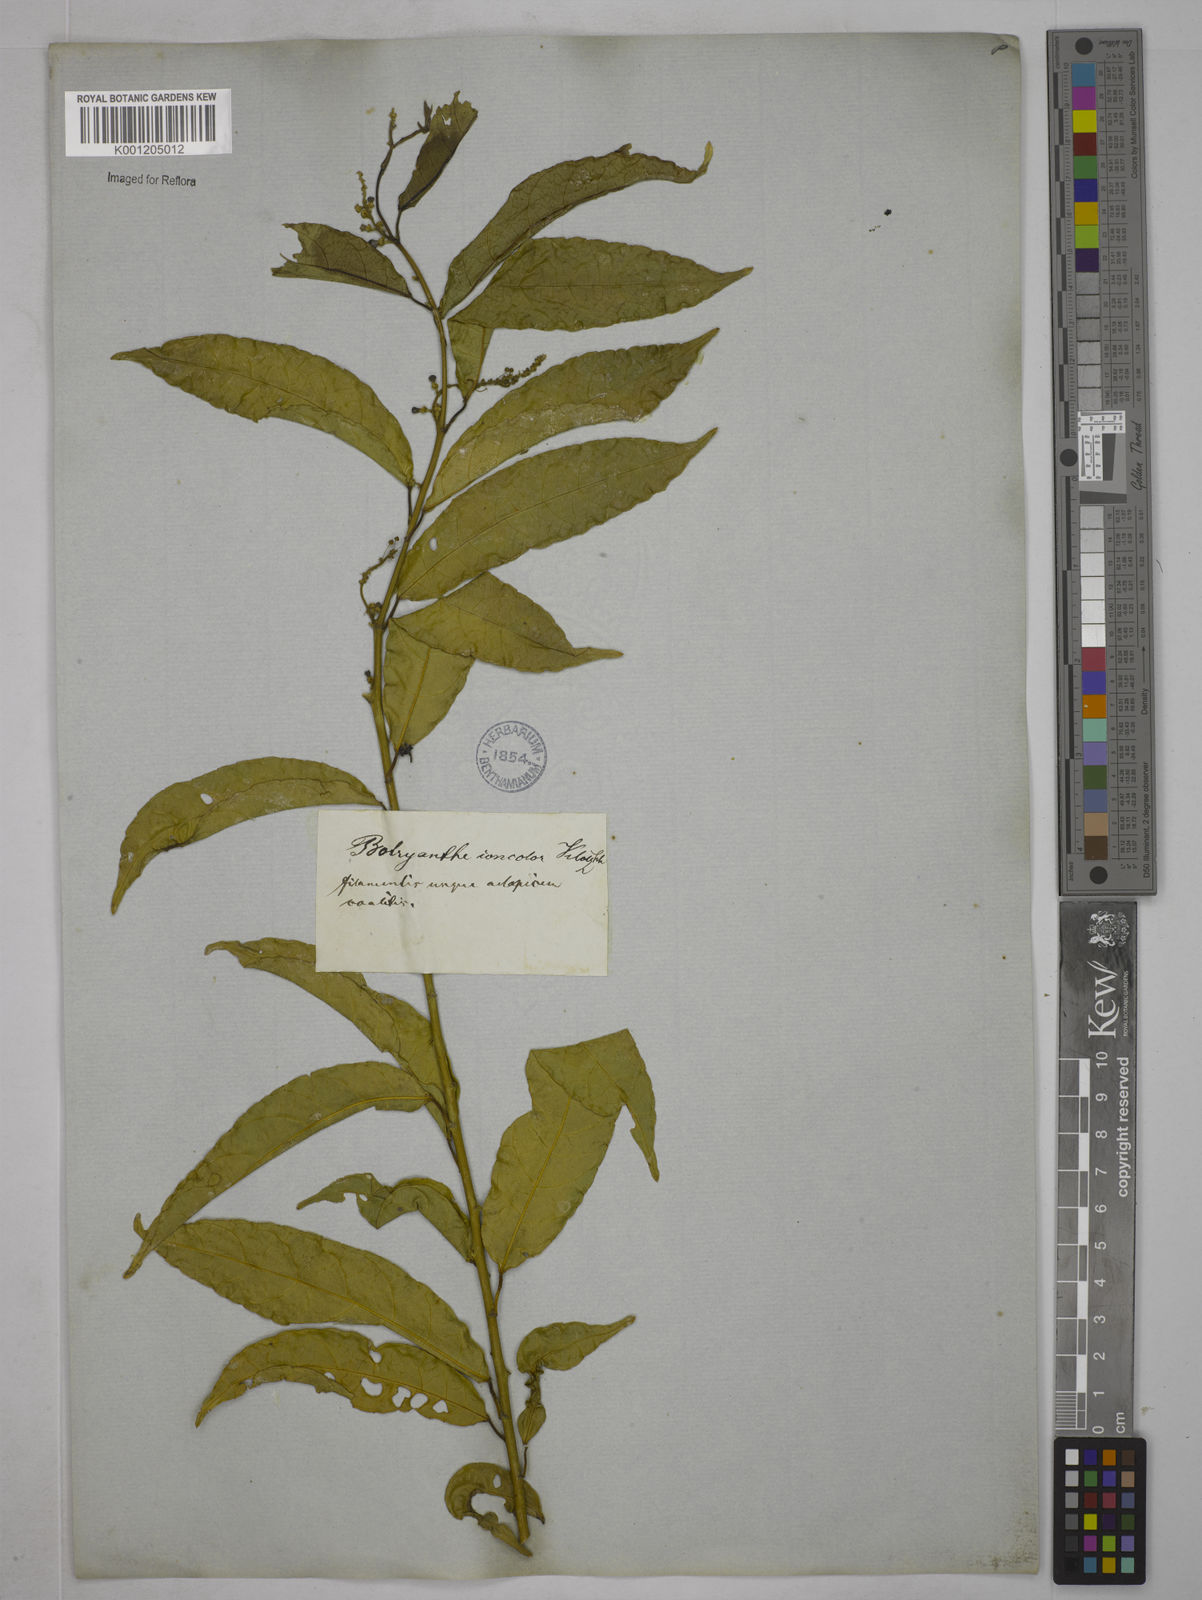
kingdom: Plantae
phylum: Tracheophyta
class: Magnoliopsida
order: Malpighiales
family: Euphorbiaceae
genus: Plukenetia
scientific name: Plukenetia serrata
